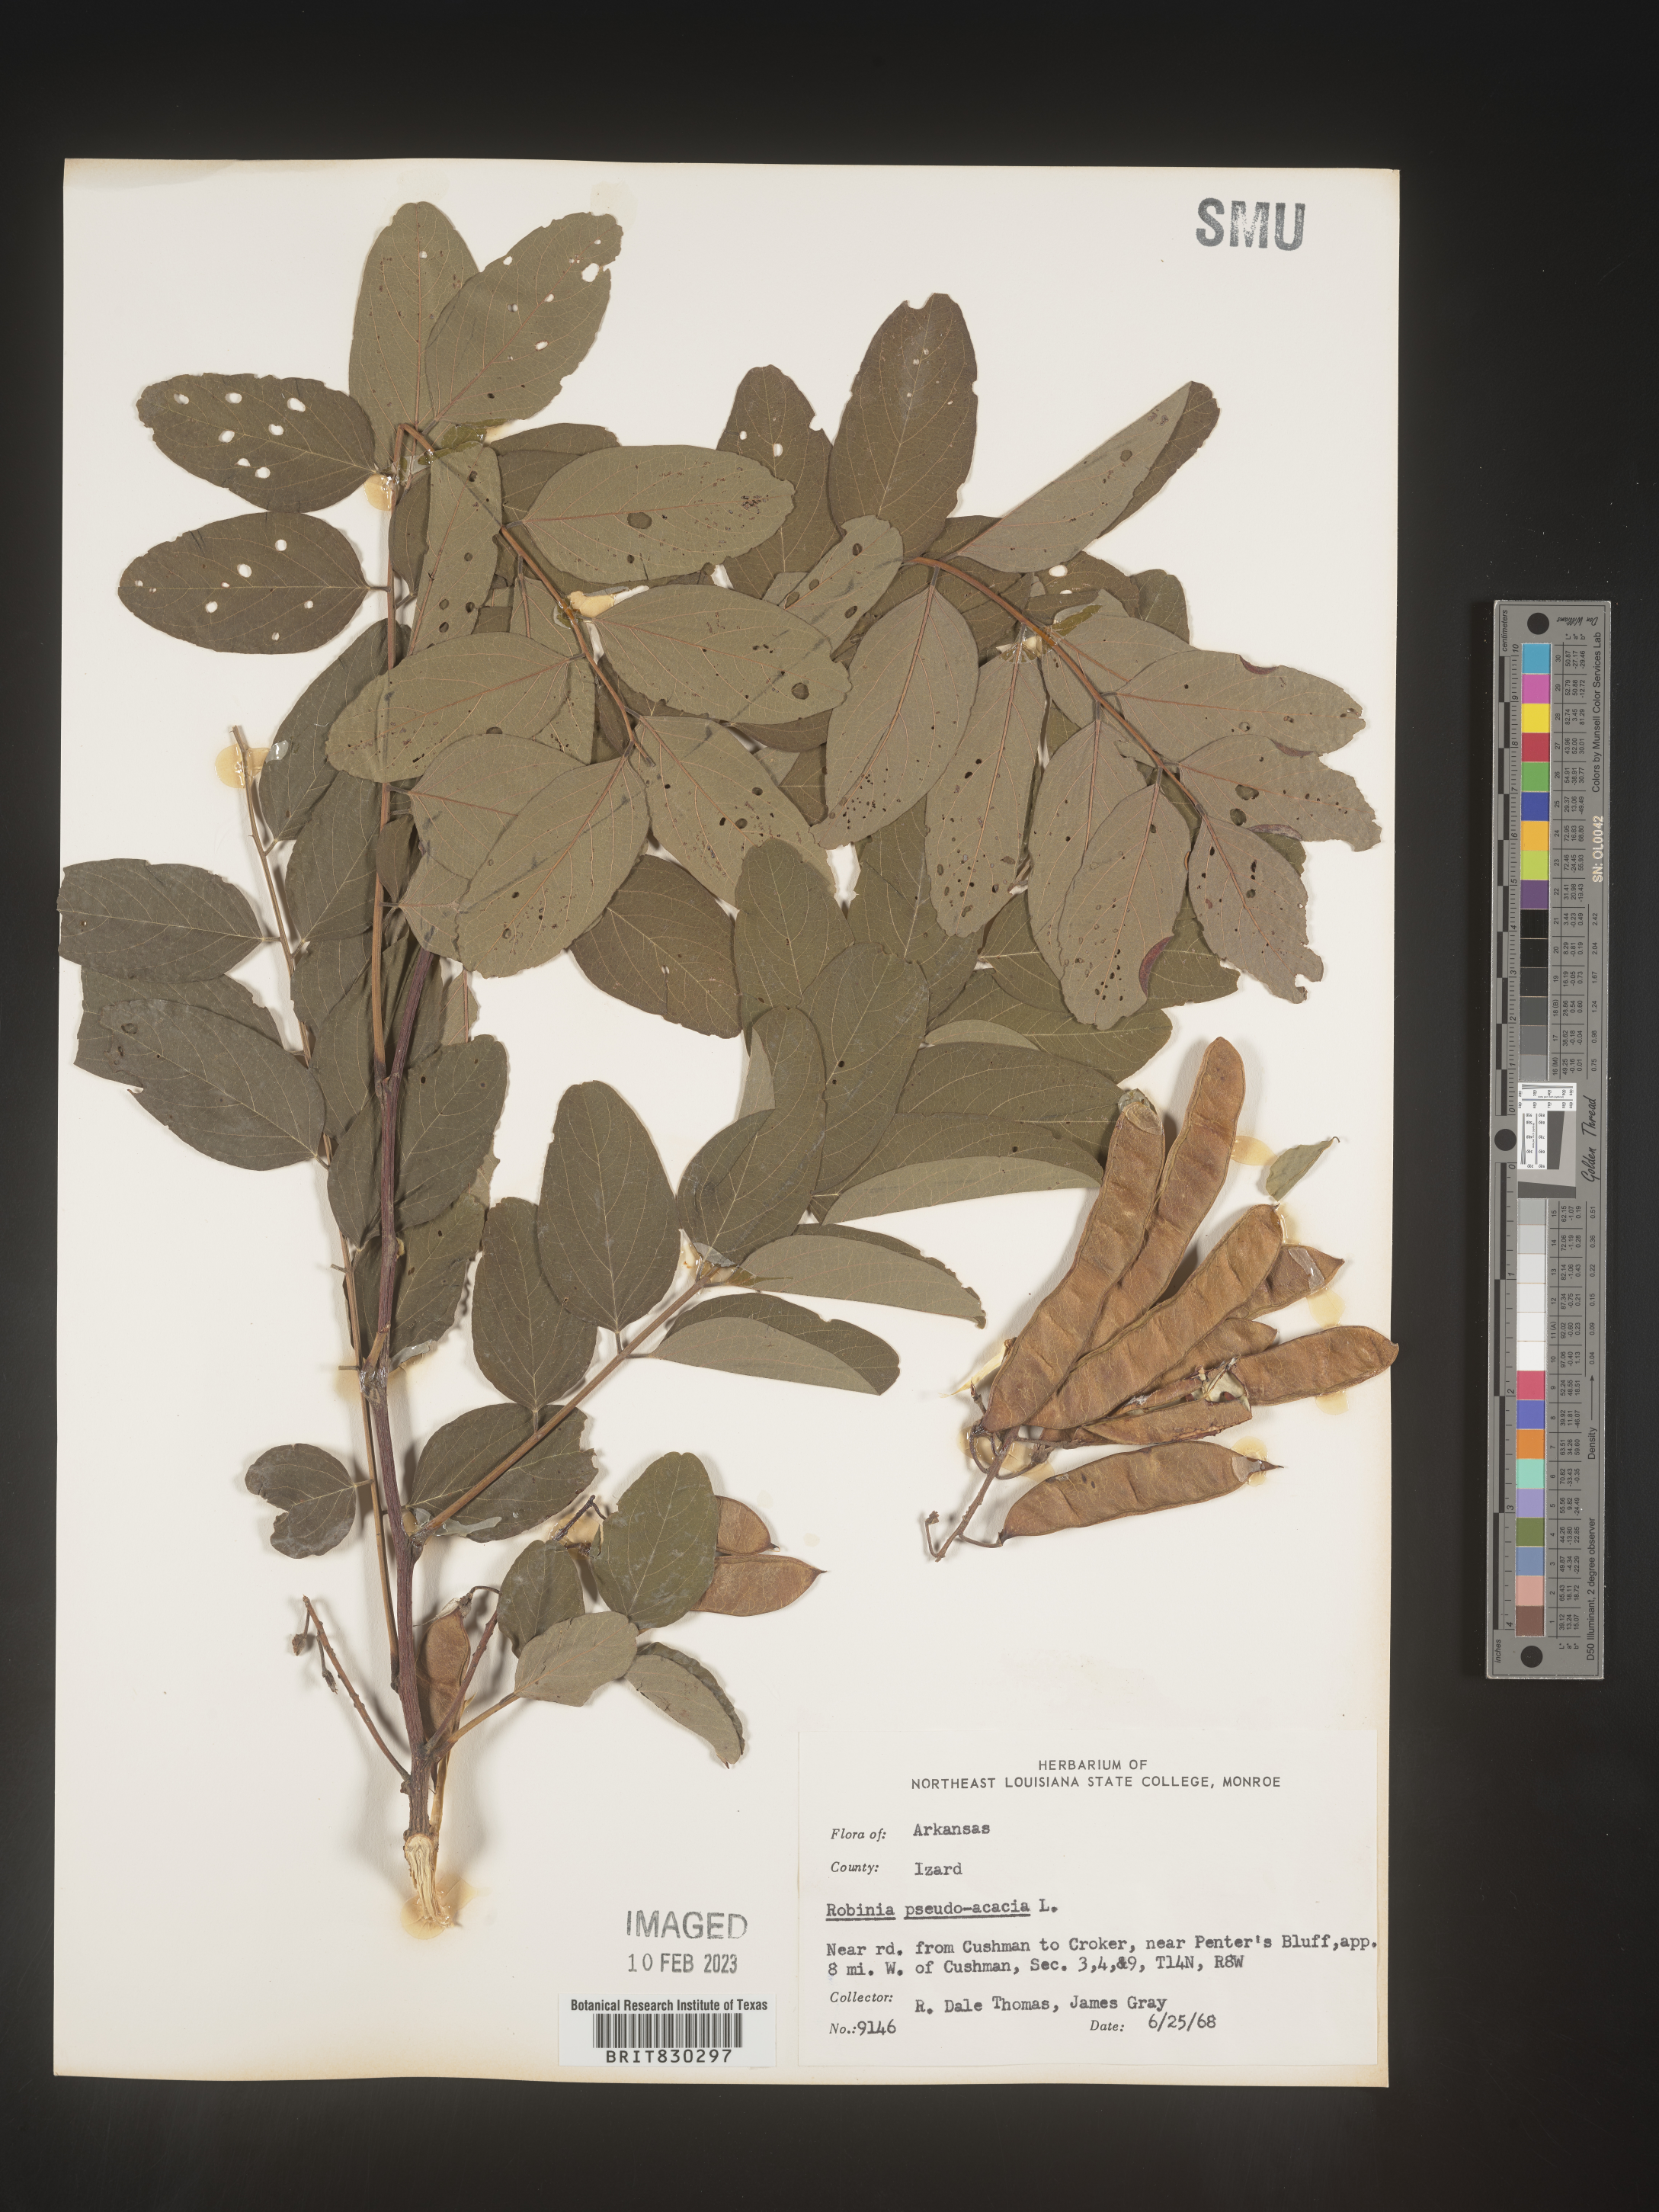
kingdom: Plantae
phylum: Tracheophyta
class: Magnoliopsida
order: Fabales
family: Fabaceae
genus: Robinia
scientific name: Robinia pseudoacacia
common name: Black locust
